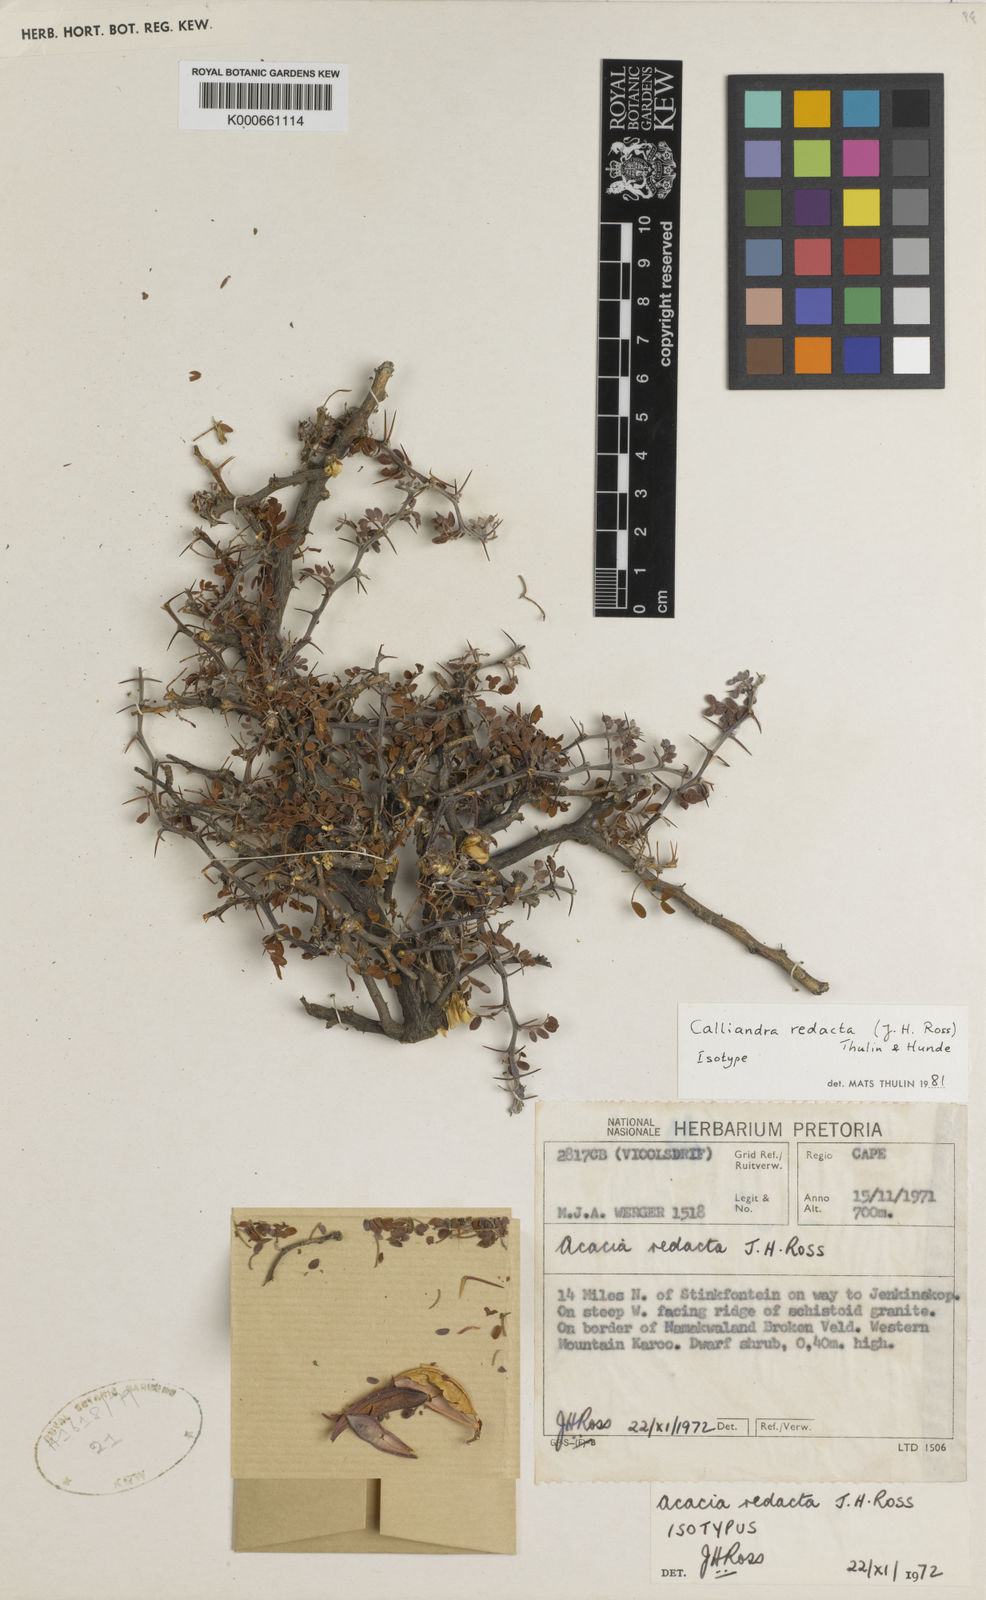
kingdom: Plantae
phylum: Tracheophyta
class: Magnoliopsida
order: Fabales
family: Fabaceae
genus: Calliandra
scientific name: Calliandra
